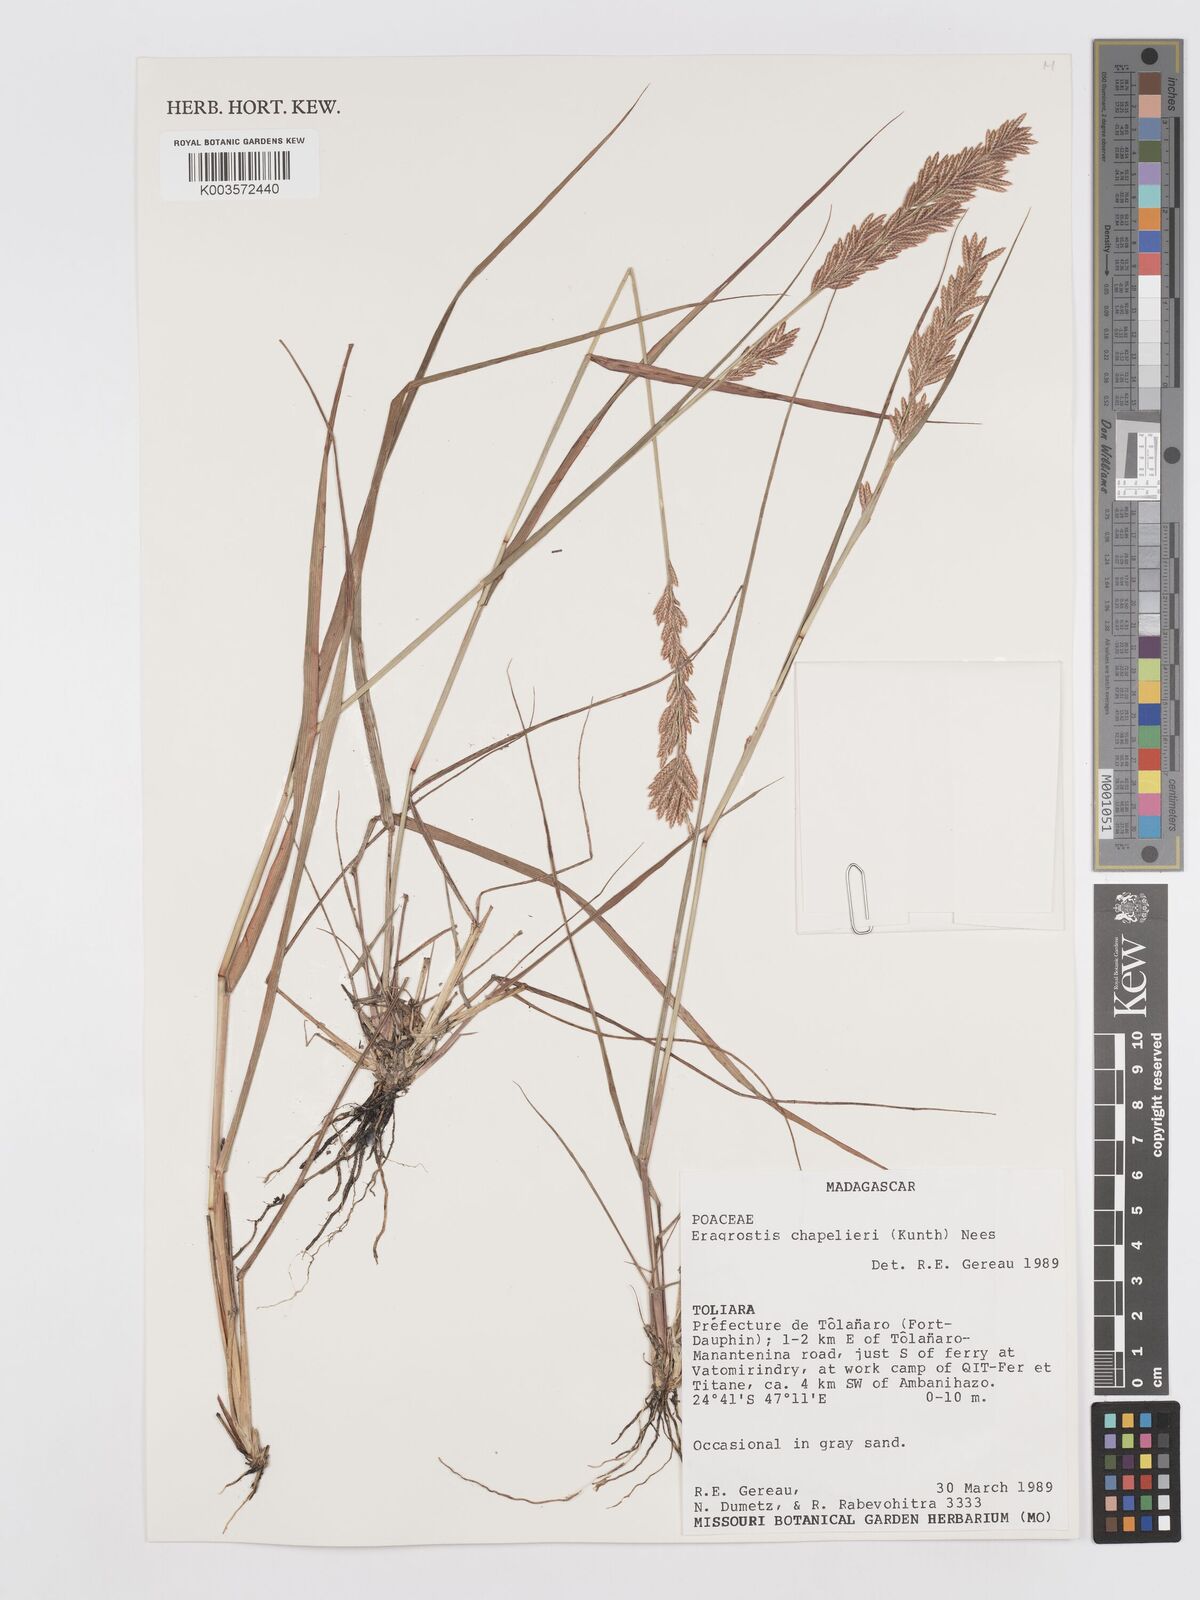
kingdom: Plantae
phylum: Tracheophyta
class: Liliopsida
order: Poales
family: Poaceae
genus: Eragrostis
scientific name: Eragrostis chapelieri
